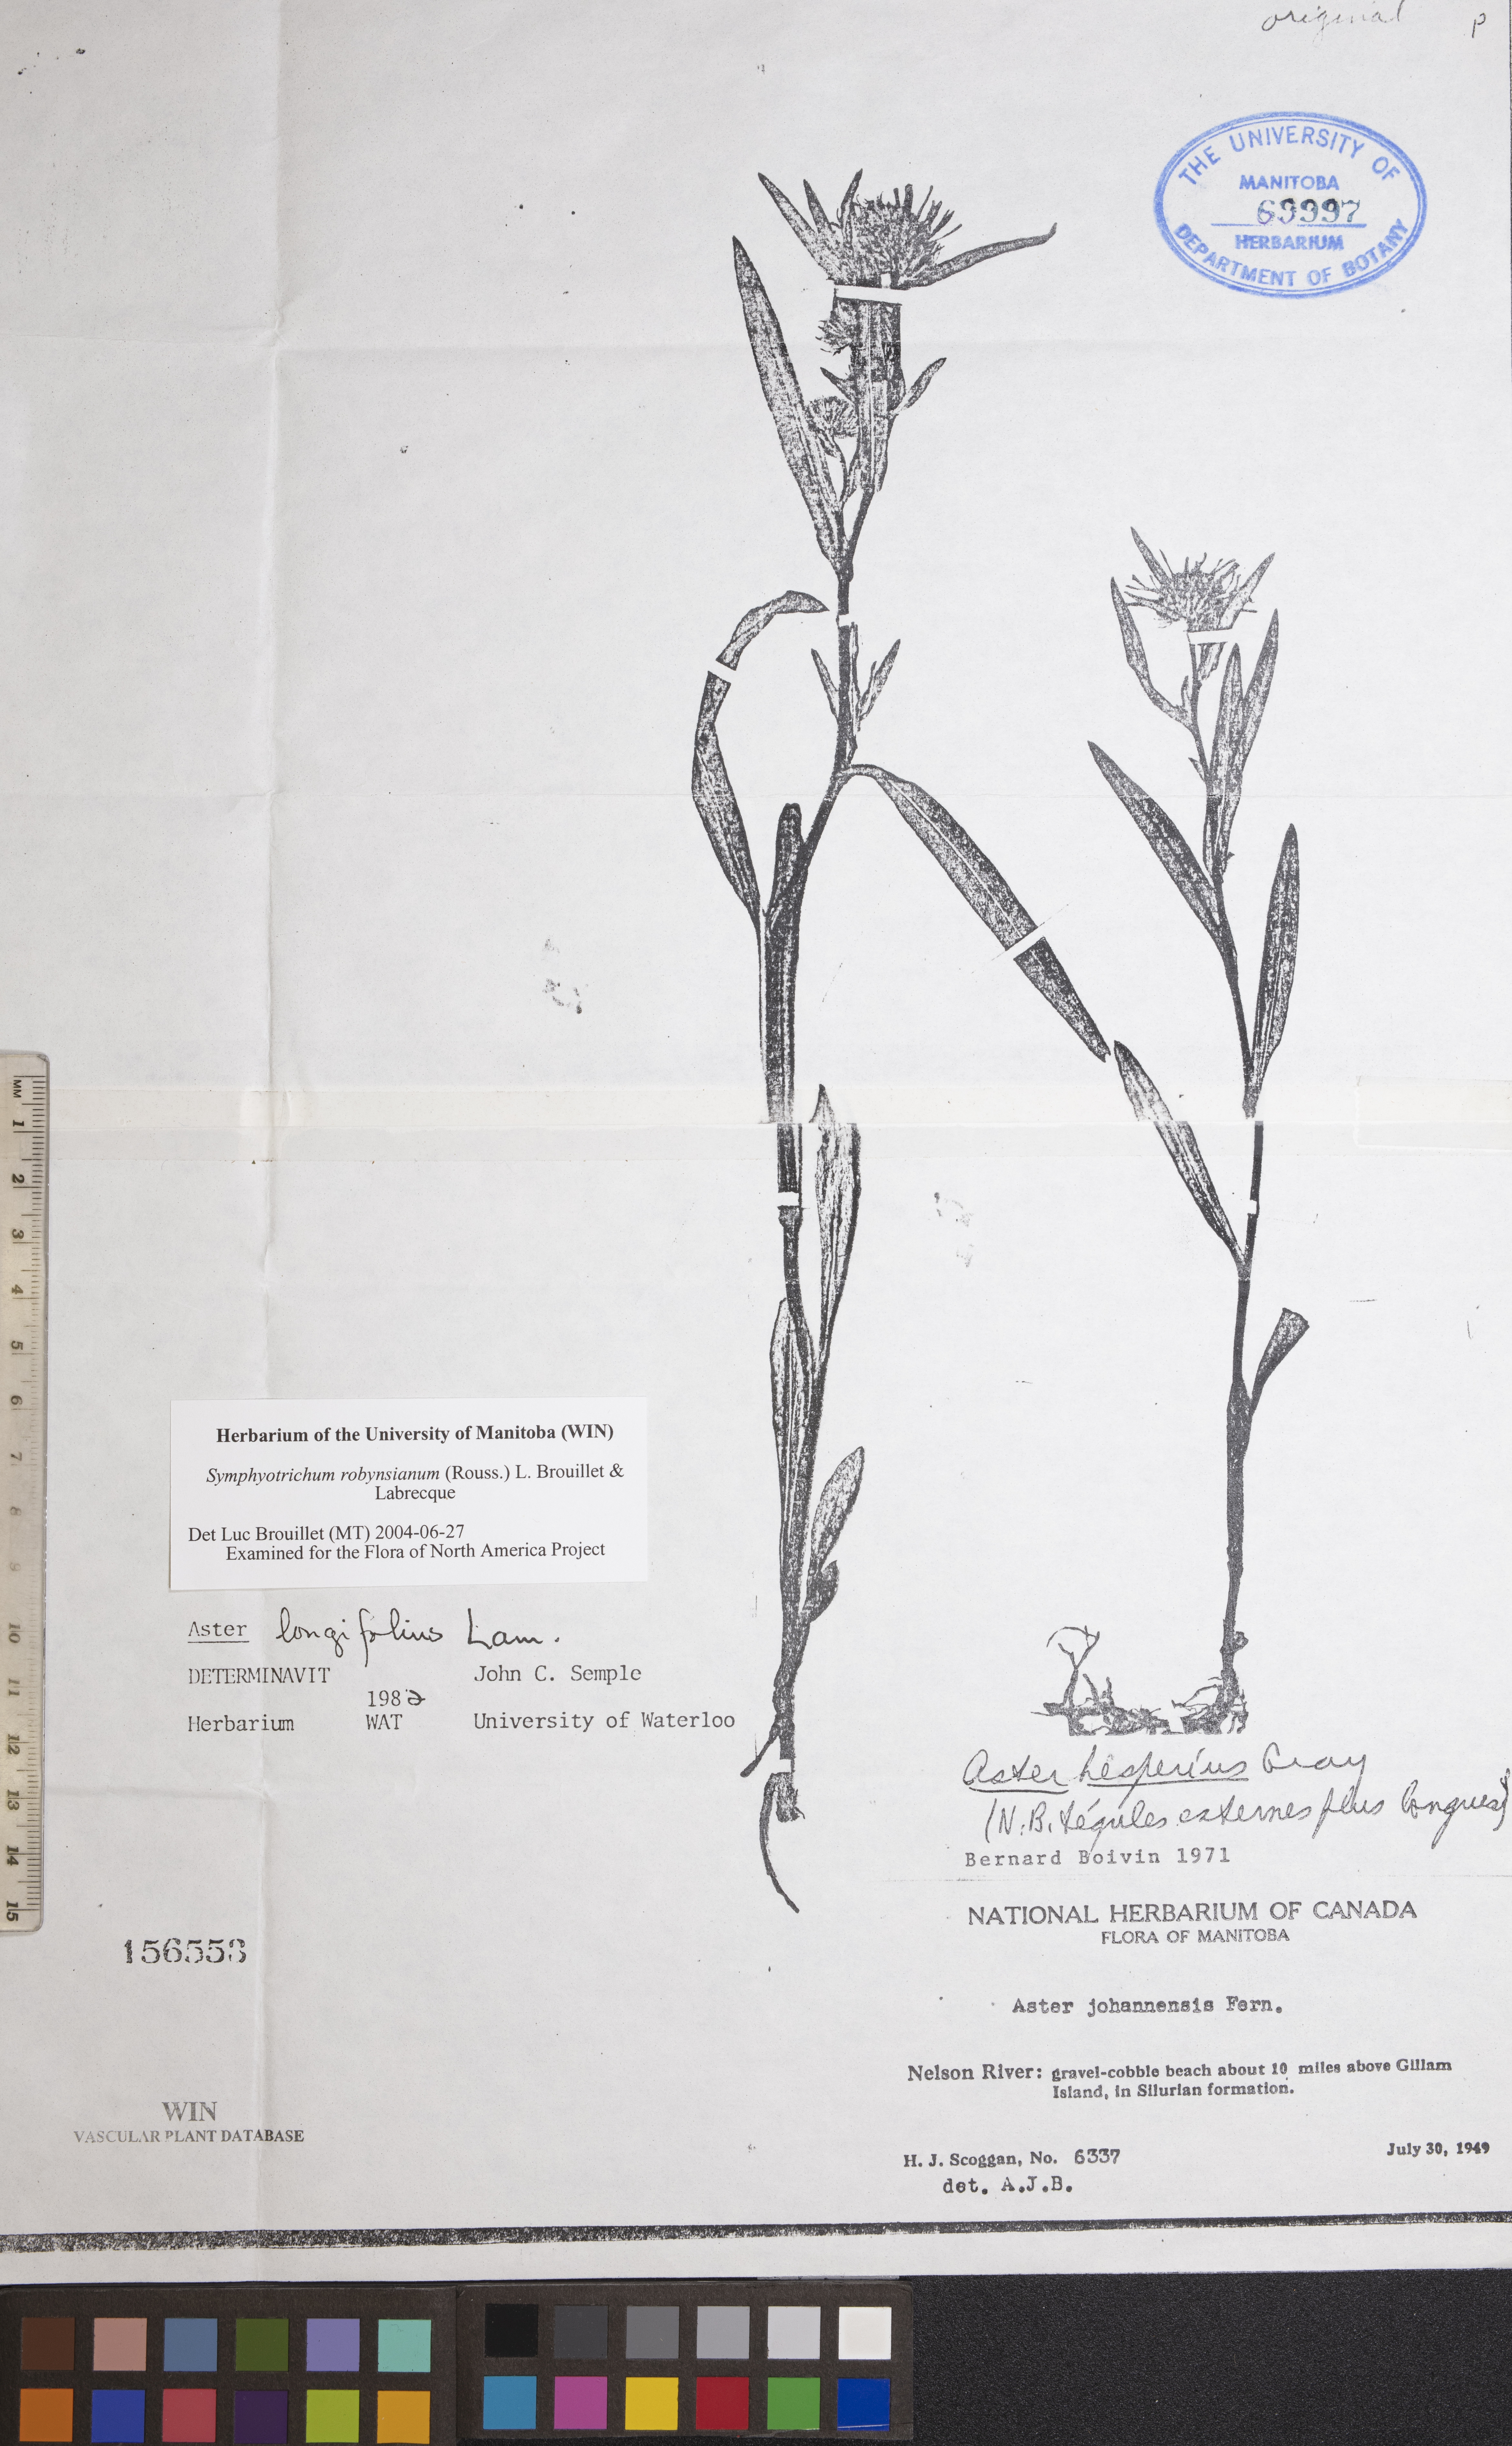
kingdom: Plantae
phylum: Tracheophyta
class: Magnoliopsida
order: Asterales
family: Asteraceae
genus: Symphyotrichum
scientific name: Symphyotrichum robynsianum
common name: Robyns' aster
